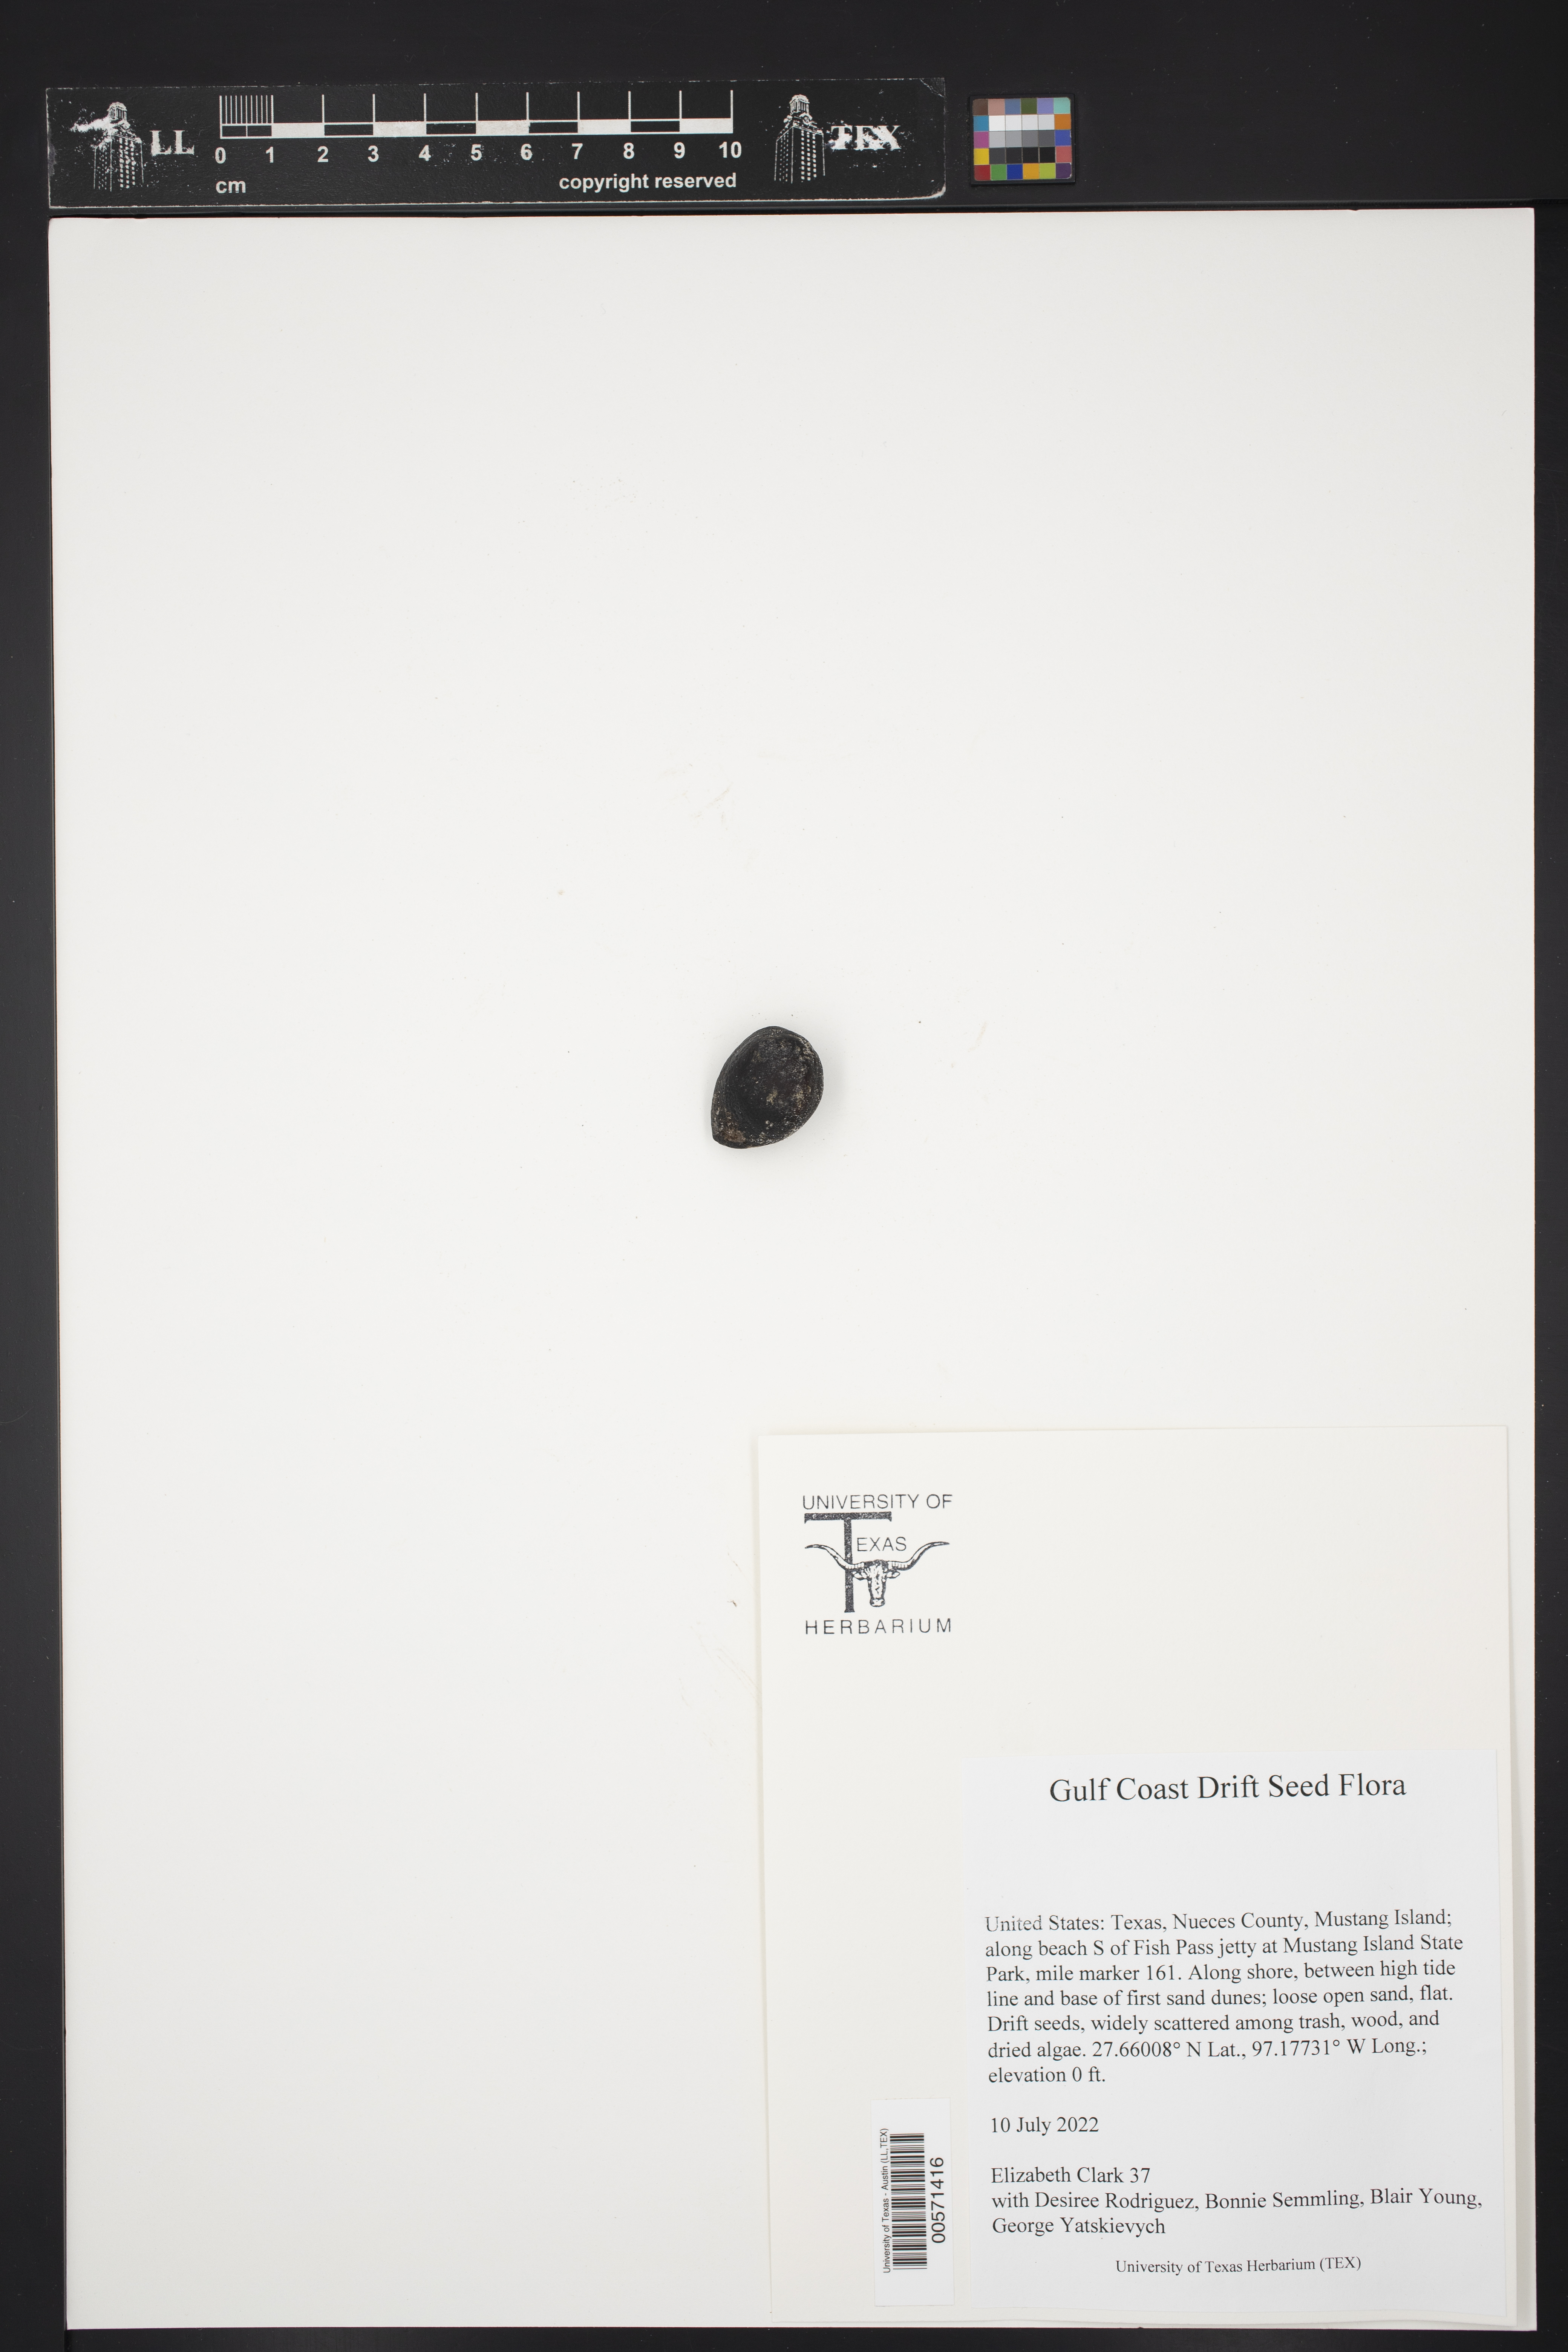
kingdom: Plantae
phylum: Tracheophyta
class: Liliopsida
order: Arecales
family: Arecaceae
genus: Astrocaryum
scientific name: Astrocaryum mexicanum
